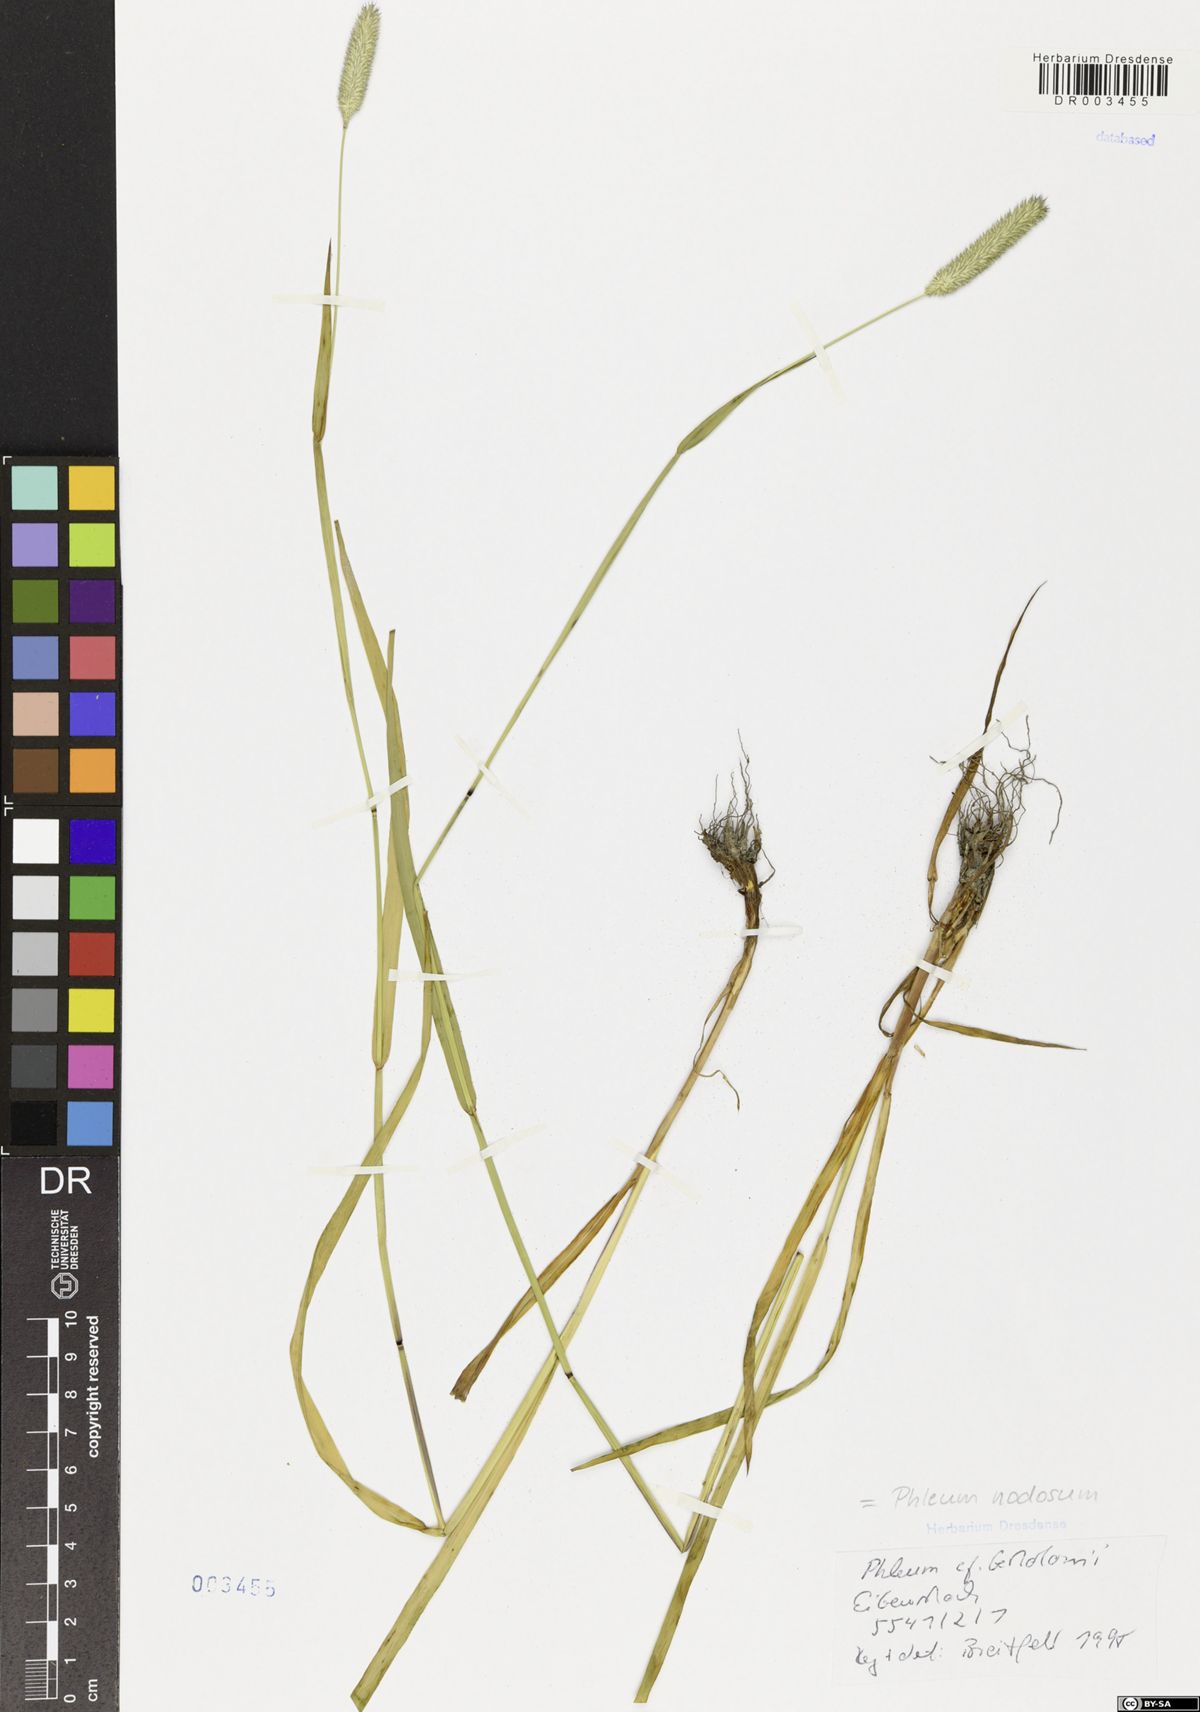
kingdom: Plantae
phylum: Tracheophyta
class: Liliopsida
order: Poales
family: Poaceae
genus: Phleum
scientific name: Phleum pratense
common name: Timothy grass
